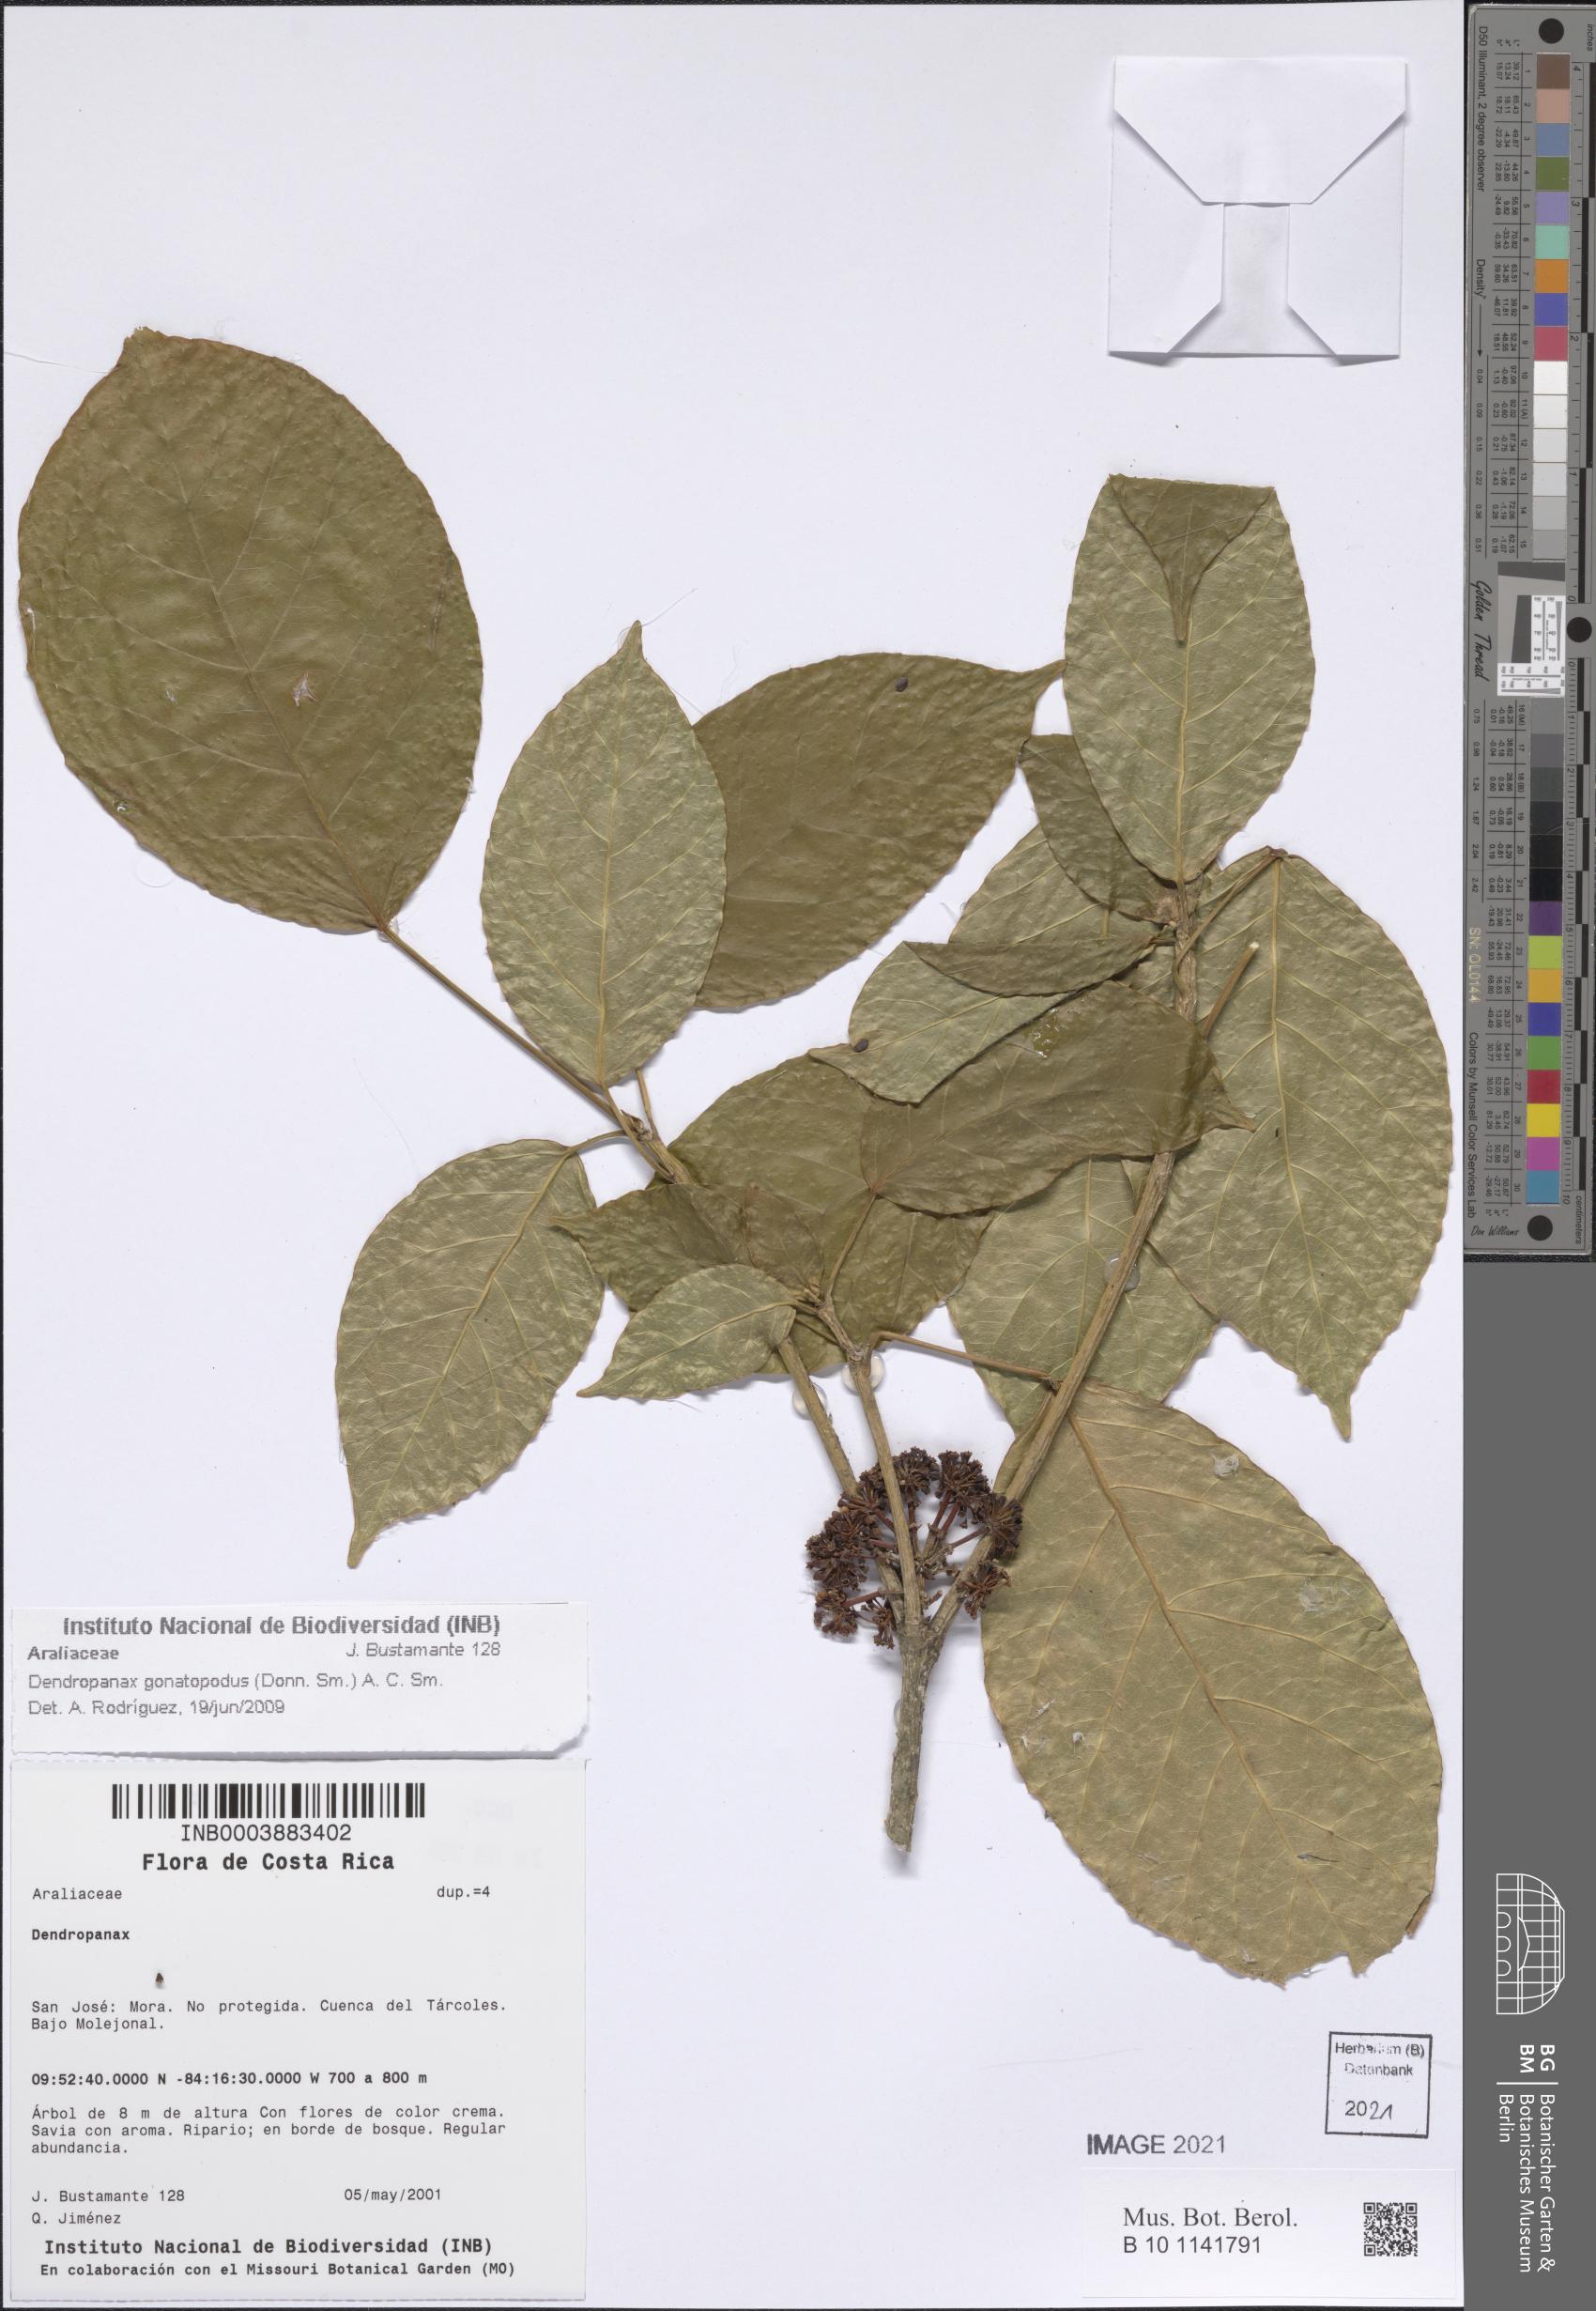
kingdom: Plantae
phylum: Tracheophyta
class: Magnoliopsida
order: Apiales
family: Araliaceae
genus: Dendropanax
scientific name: Dendropanax gonatopodus
